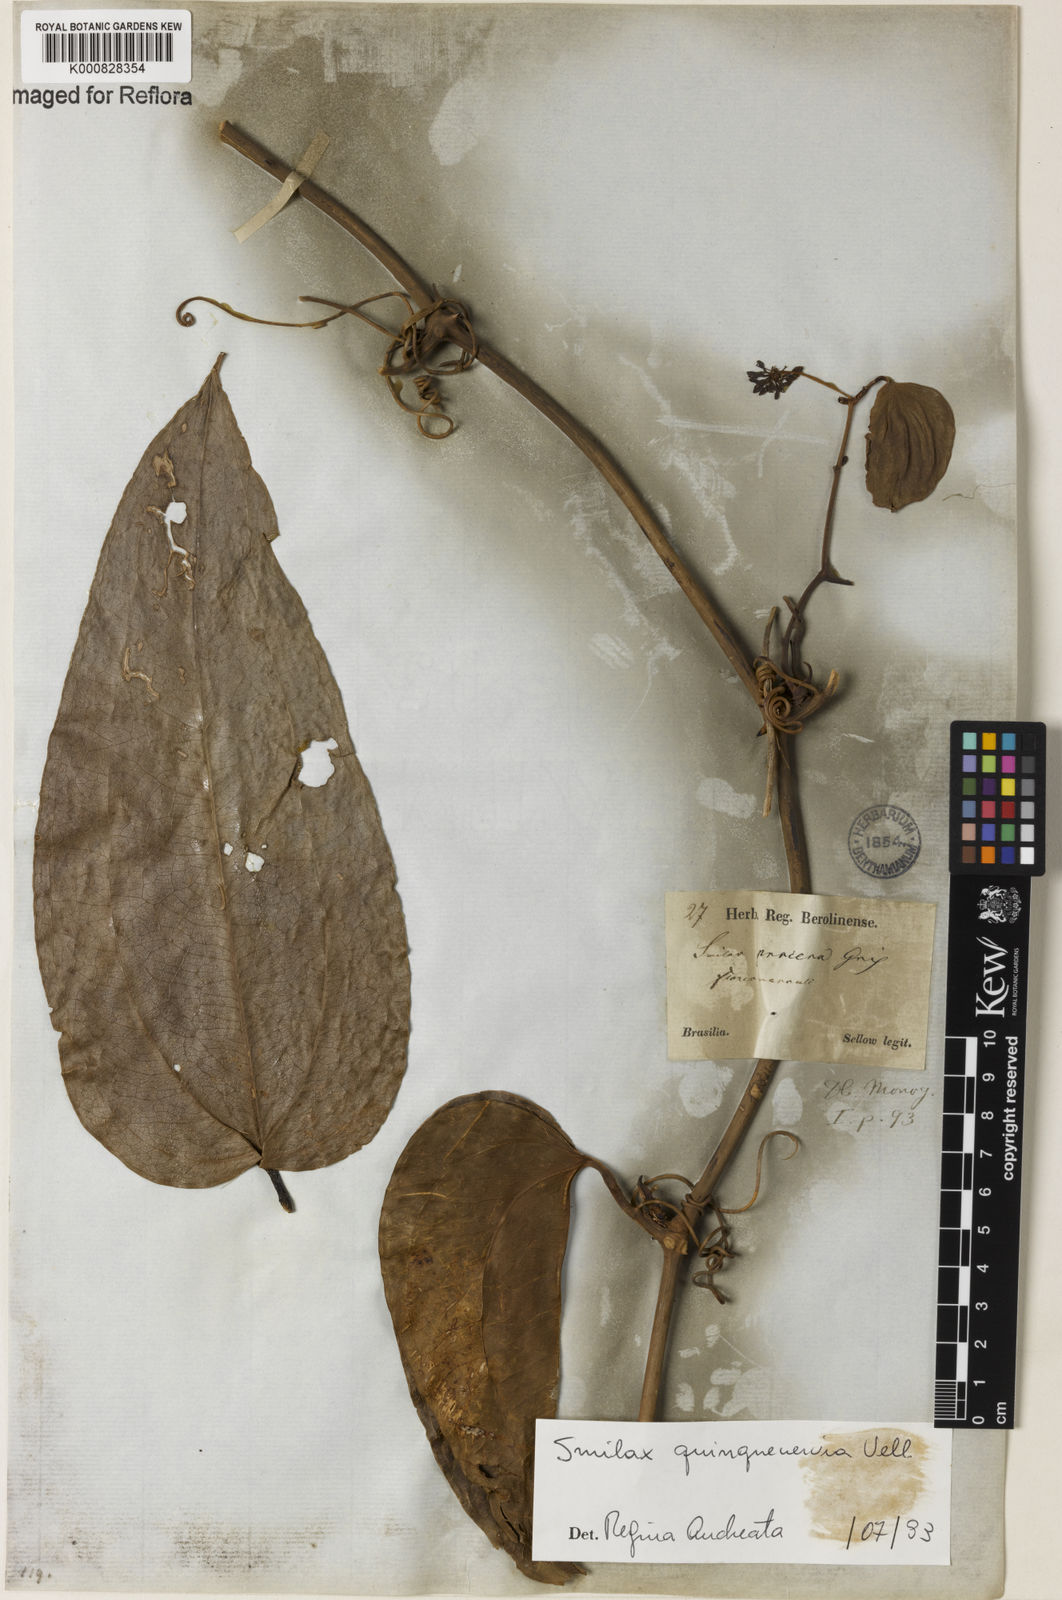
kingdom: Plantae
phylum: Tracheophyta
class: Liliopsida
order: Liliales
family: Smilacaceae
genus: Smilax
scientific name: Smilax quinquenervia
